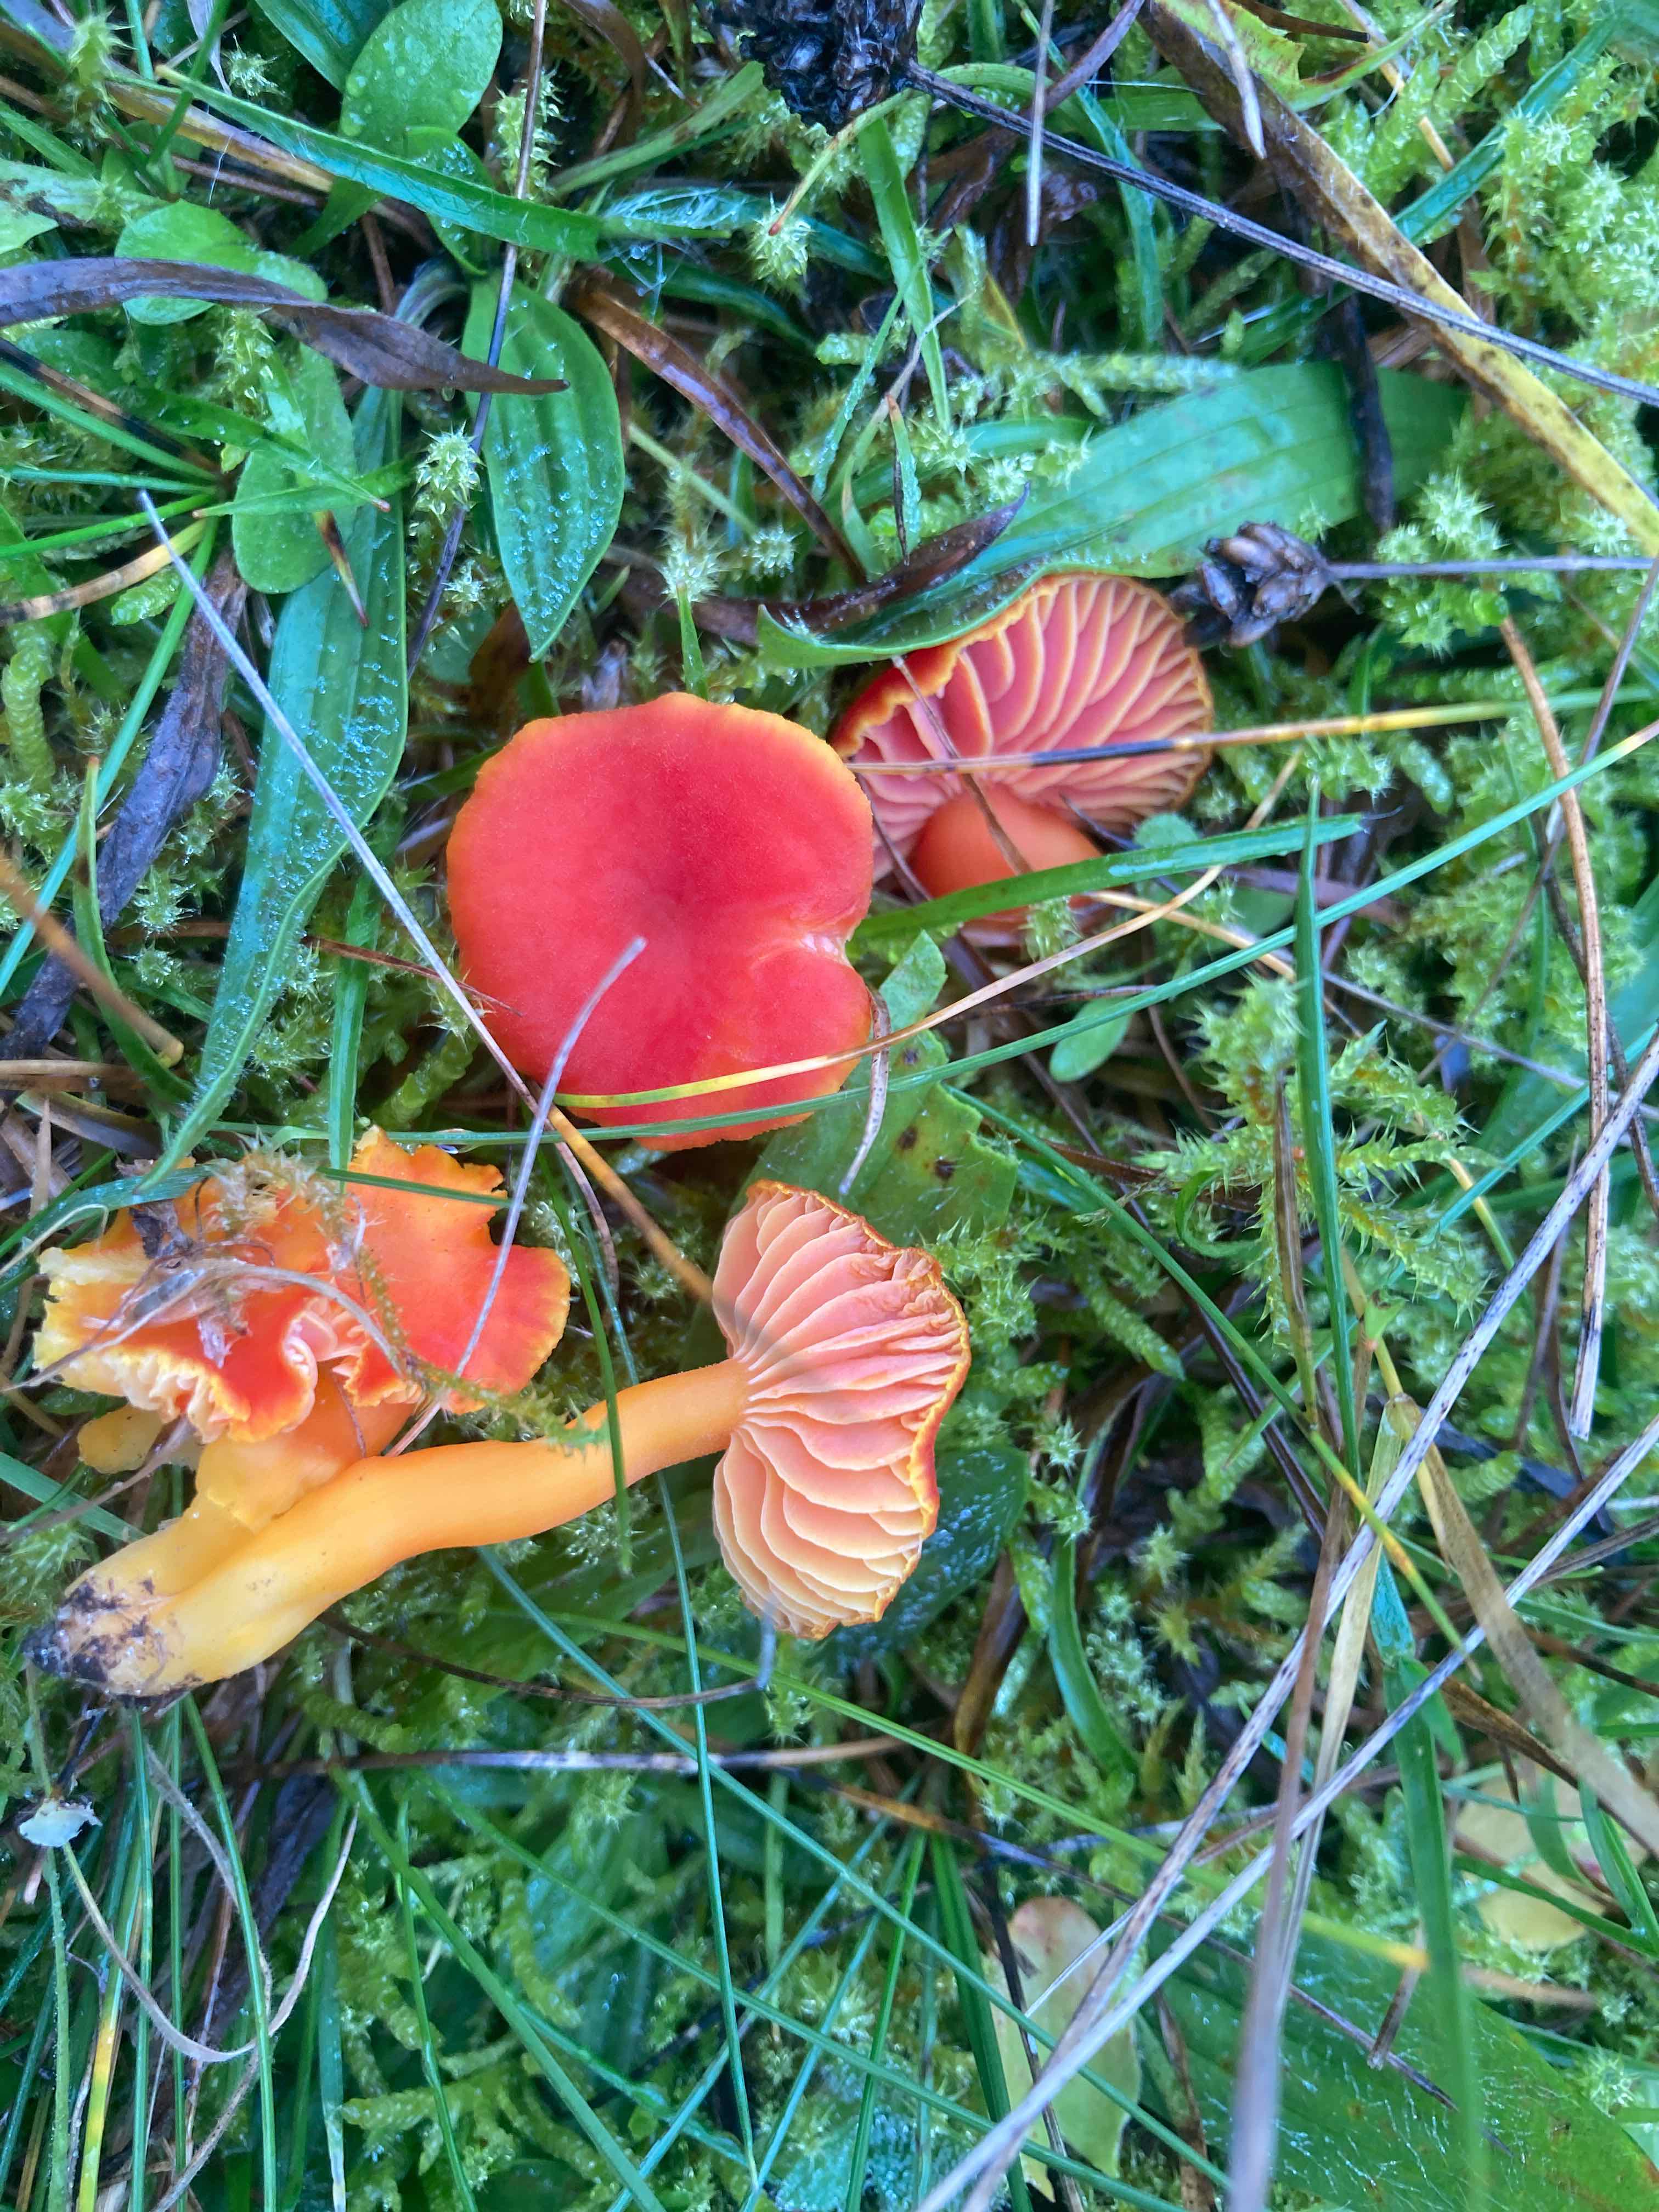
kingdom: Fungi
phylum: Basidiomycota
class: Agaricomycetes
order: Agaricales
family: Hygrophoraceae
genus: Hygrocybe
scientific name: Hygrocybe miniata
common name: mønje-vokshat
